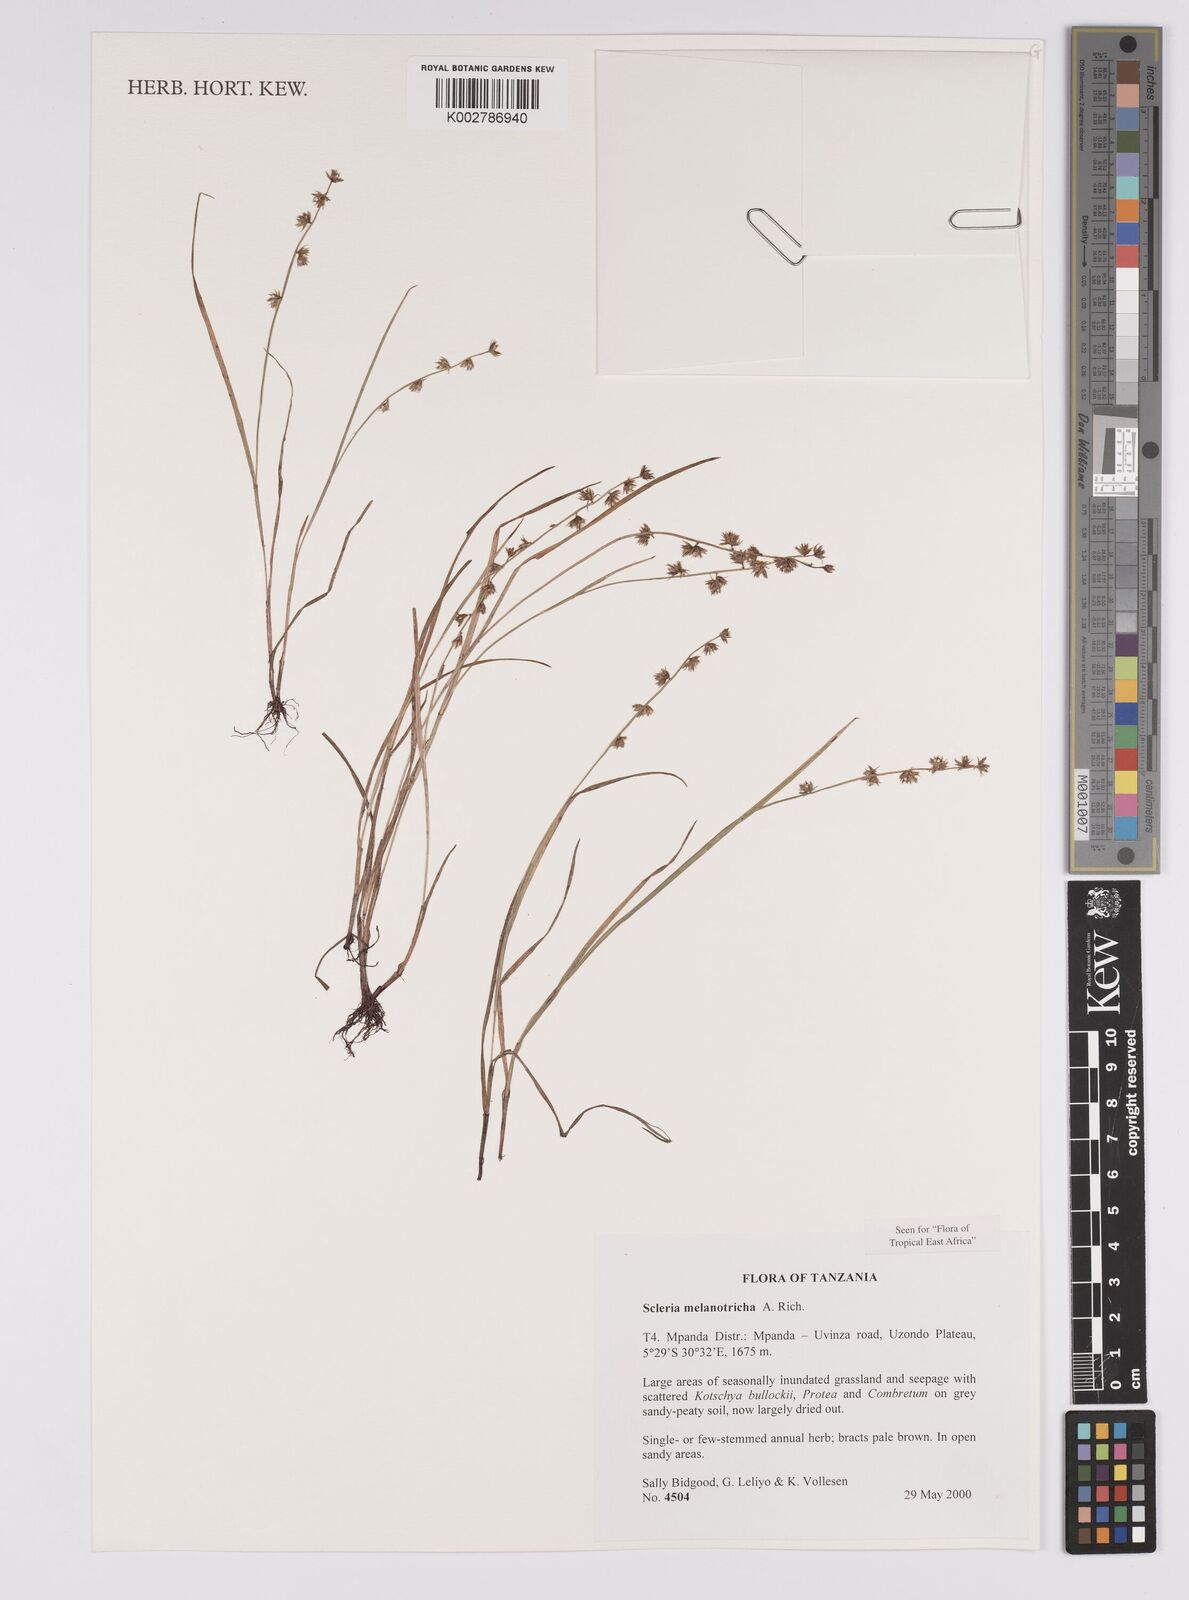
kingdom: Plantae
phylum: Tracheophyta
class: Liliopsida
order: Poales
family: Cyperaceae
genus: Scleria
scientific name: Scleria melanotricha
